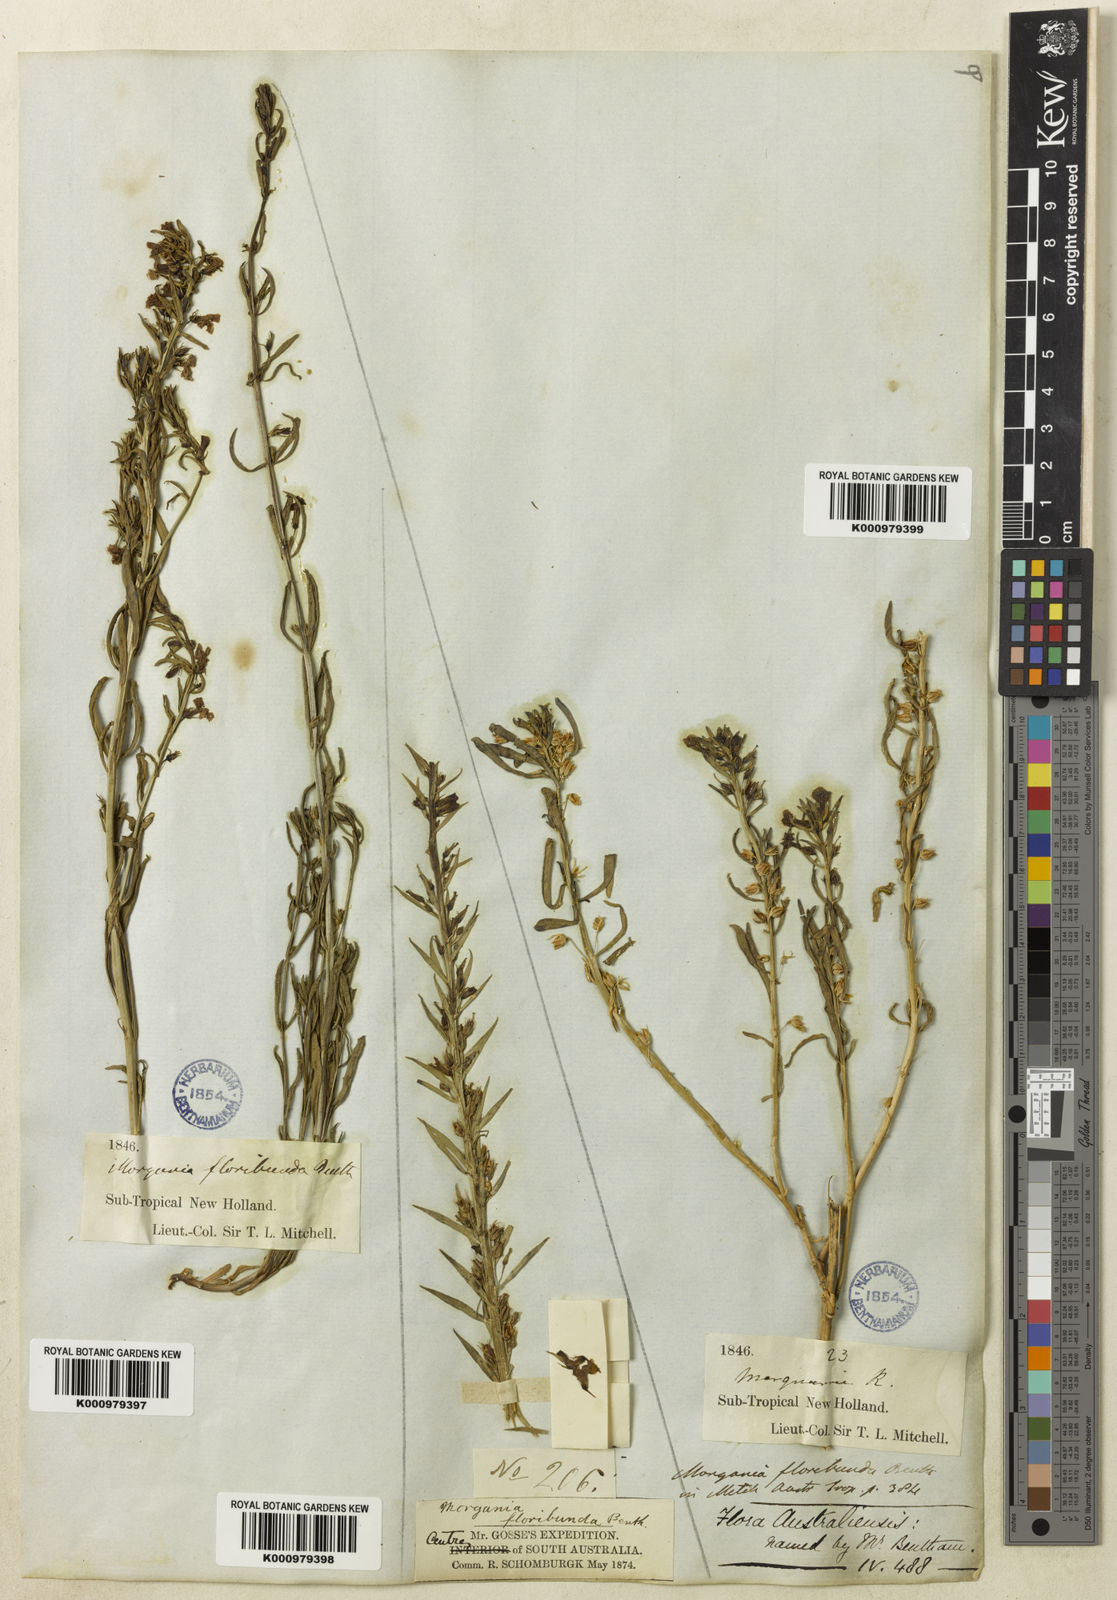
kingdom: Plantae
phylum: Tracheophyta
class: Magnoliopsida
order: Lamiales
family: Plantaginaceae
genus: Stemodia
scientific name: Stemodia florulenta
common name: Bluerod
